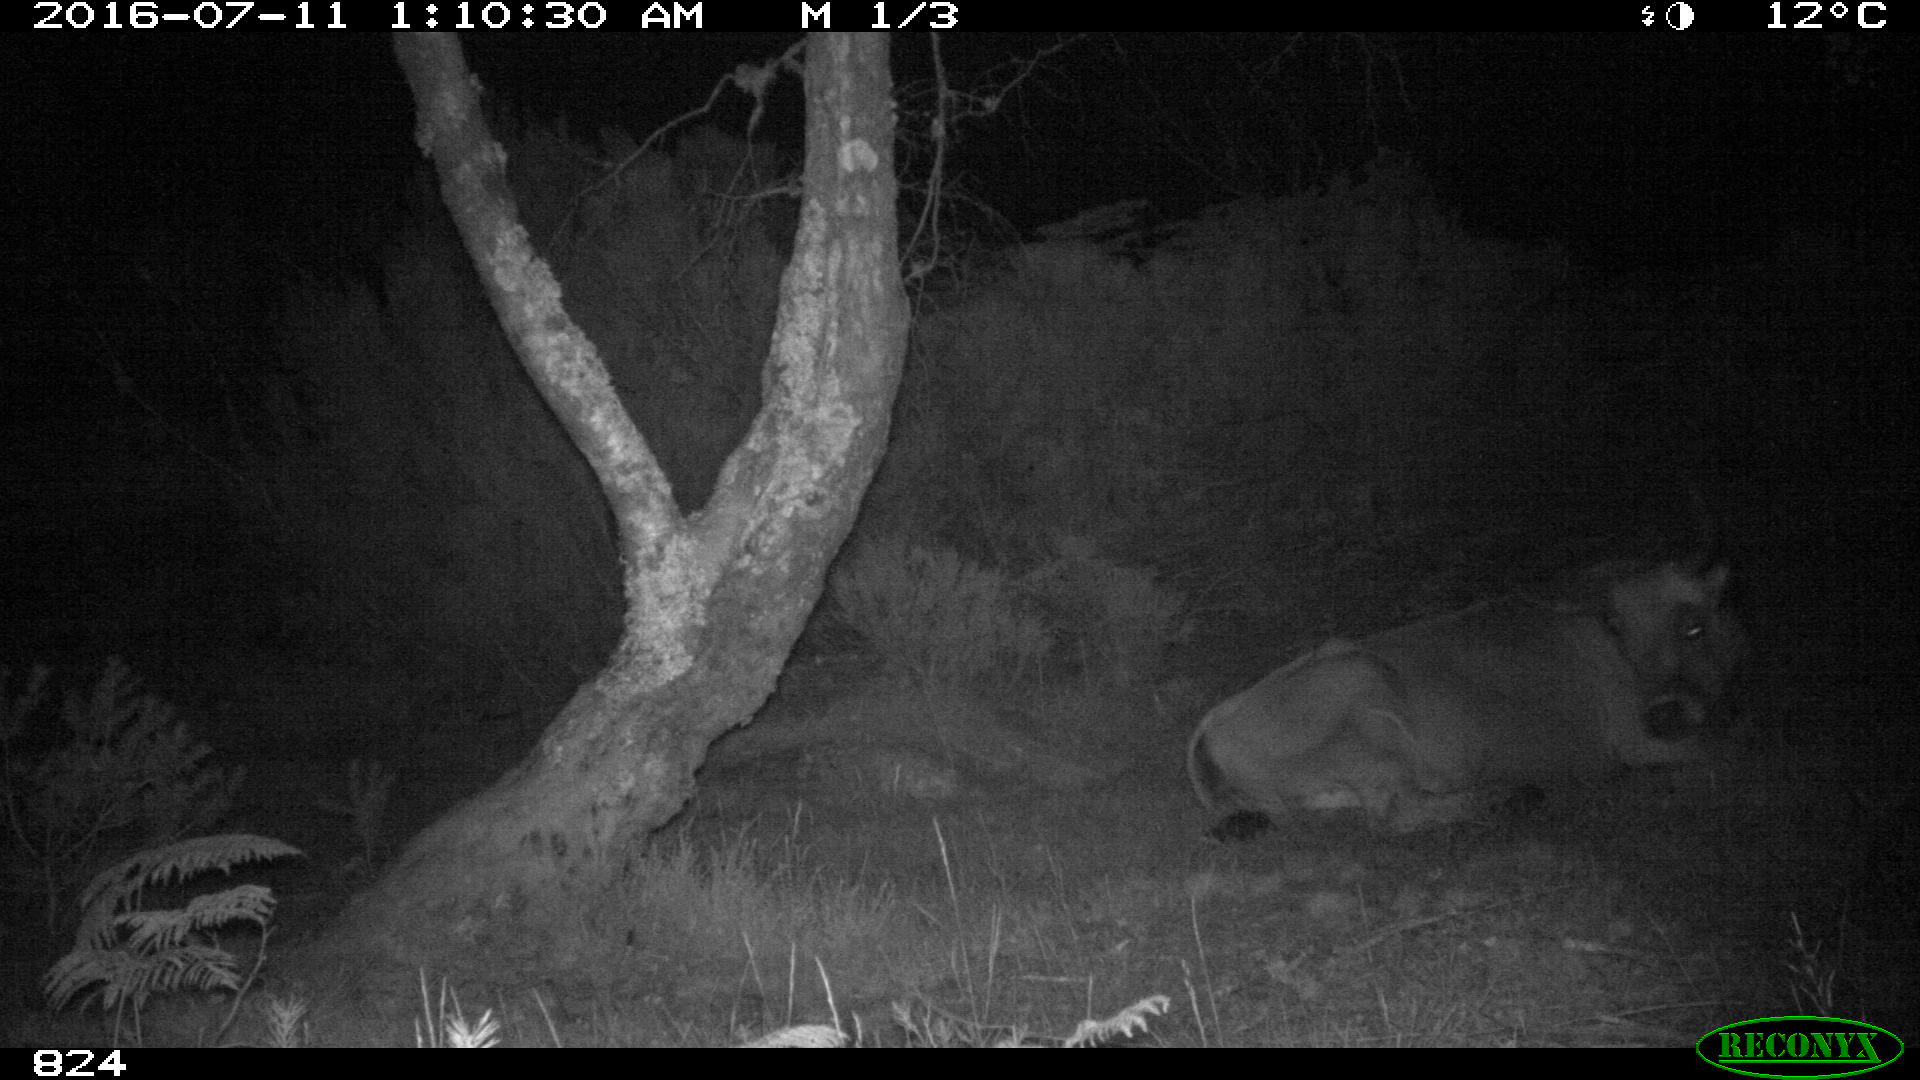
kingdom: Animalia
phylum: Chordata
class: Mammalia
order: Artiodactyla
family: Bovidae
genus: Bos
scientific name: Bos taurus
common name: Domesticated cattle
